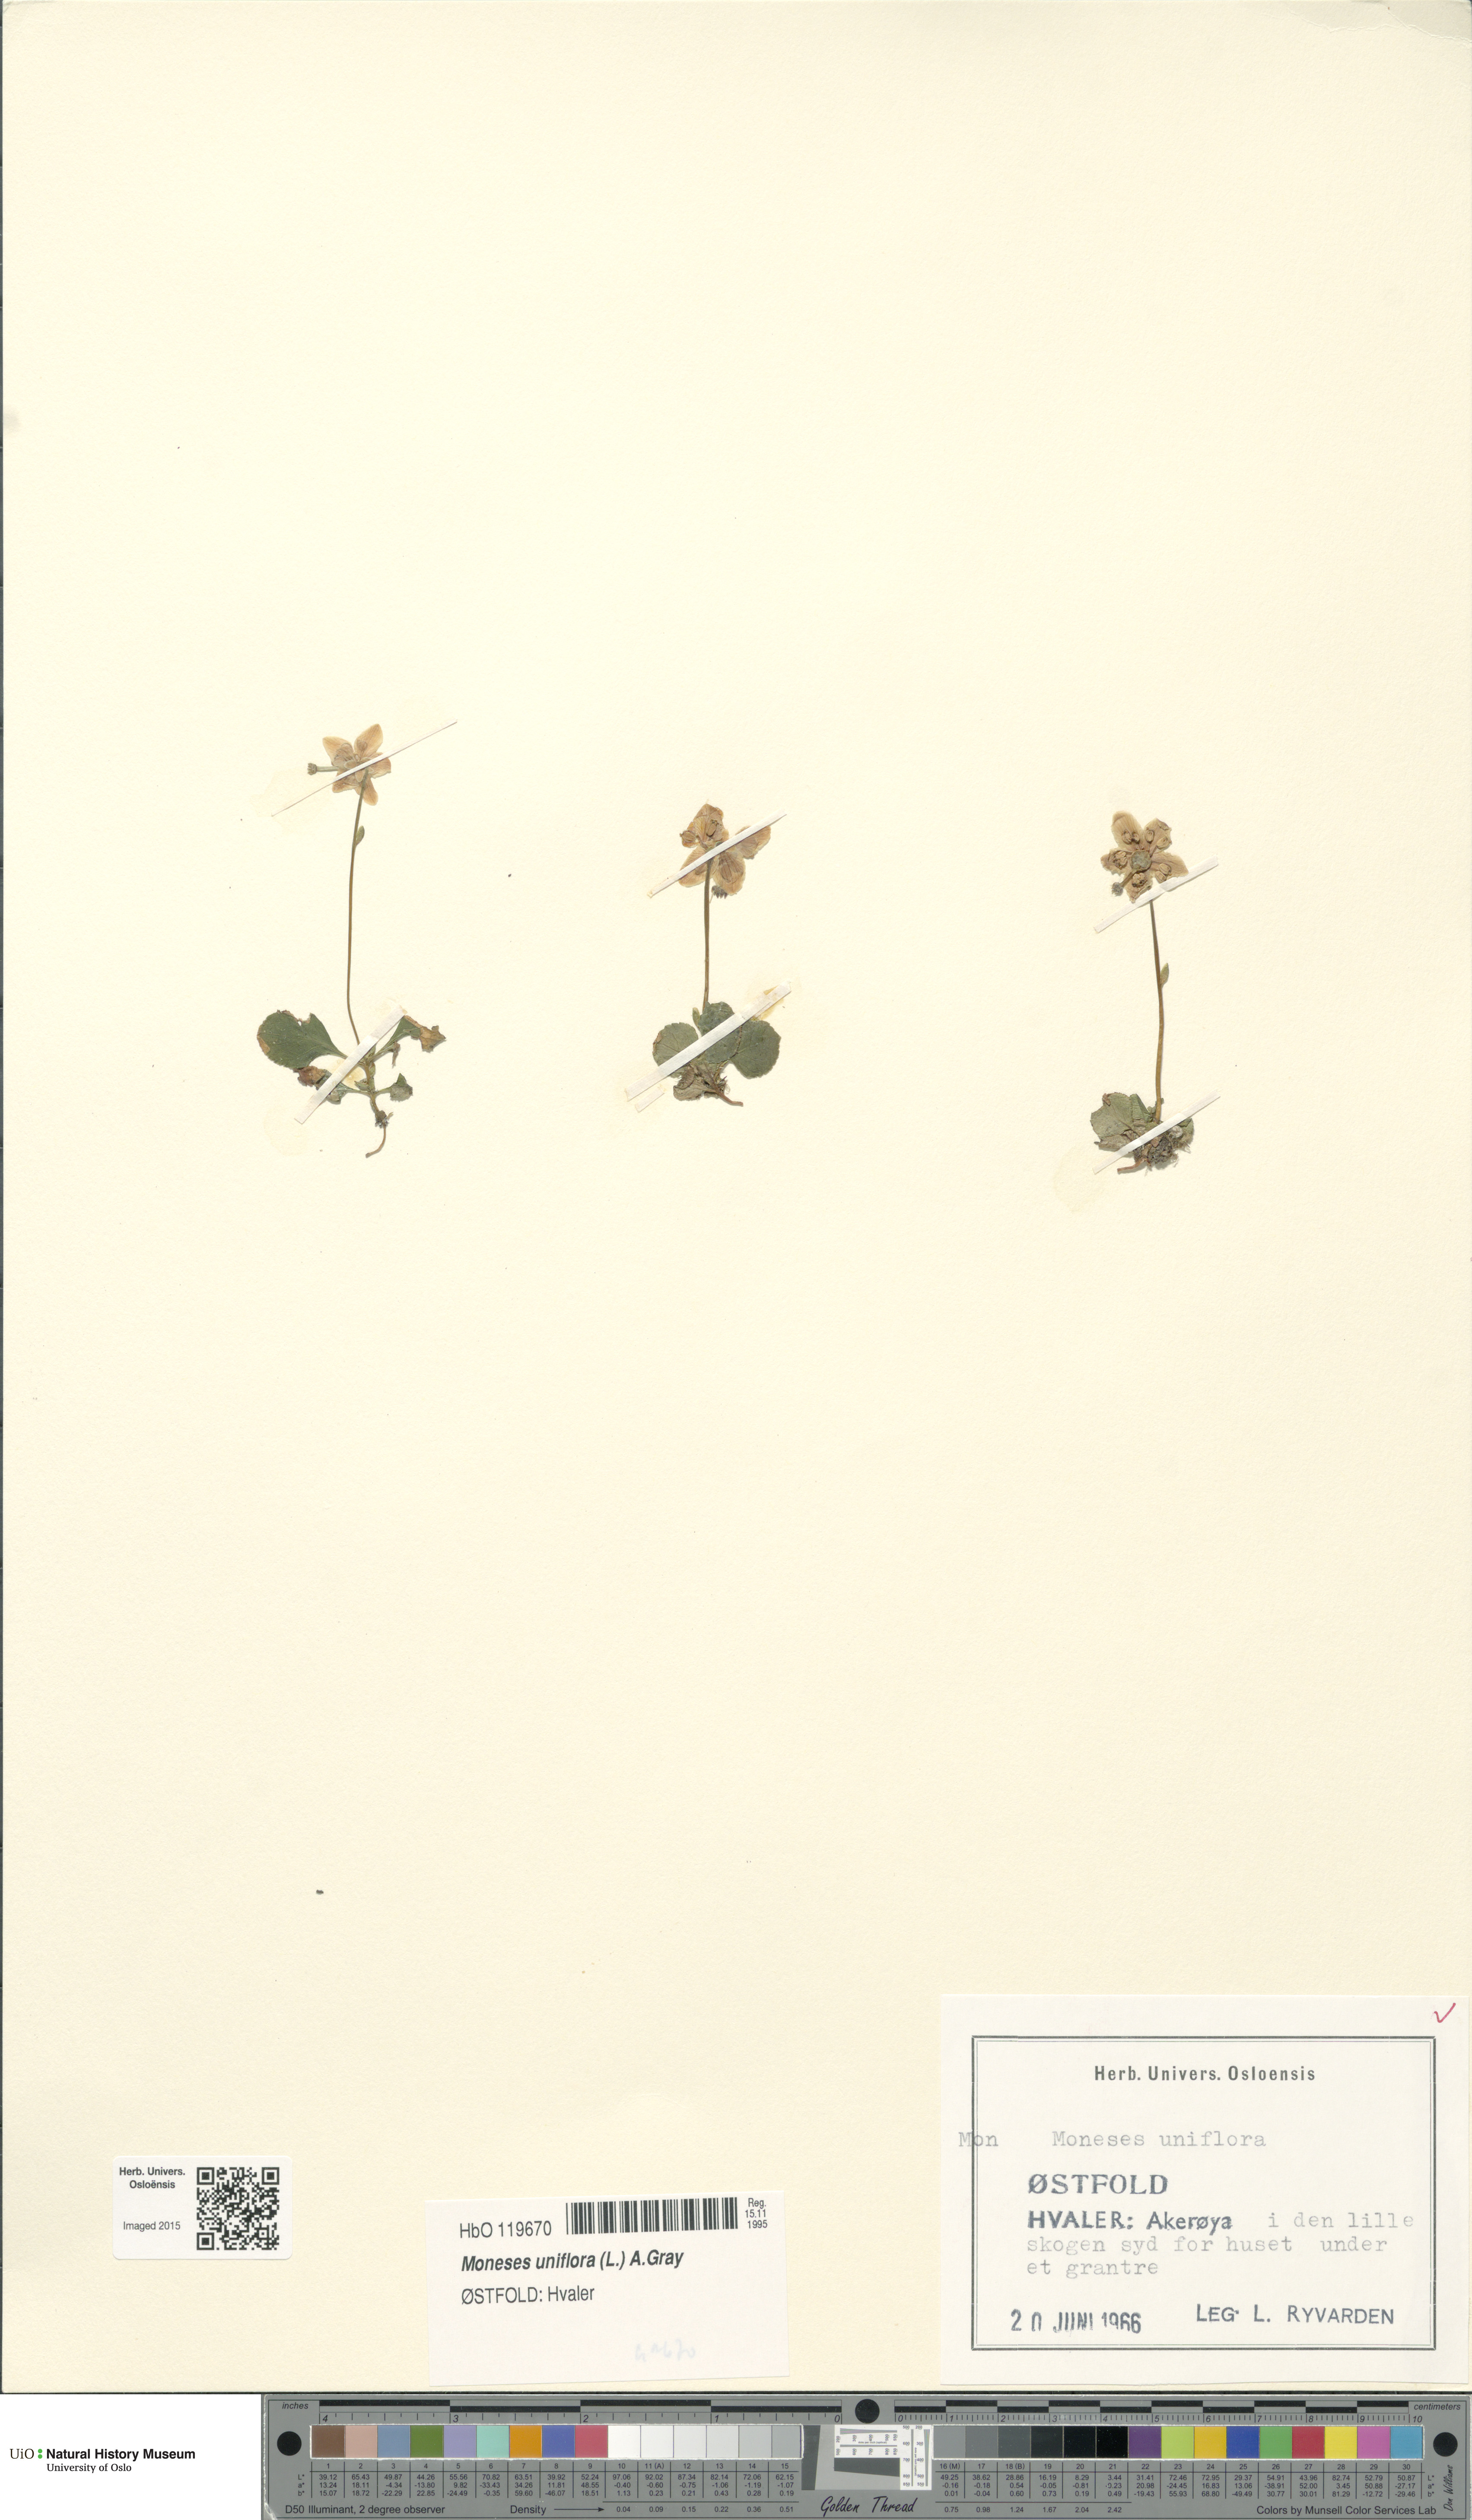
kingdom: Plantae
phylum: Tracheophyta
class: Magnoliopsida
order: Ericales
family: Ericaceae
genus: Moneses
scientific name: Moneses uniflora
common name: One-flowered wintergreen
